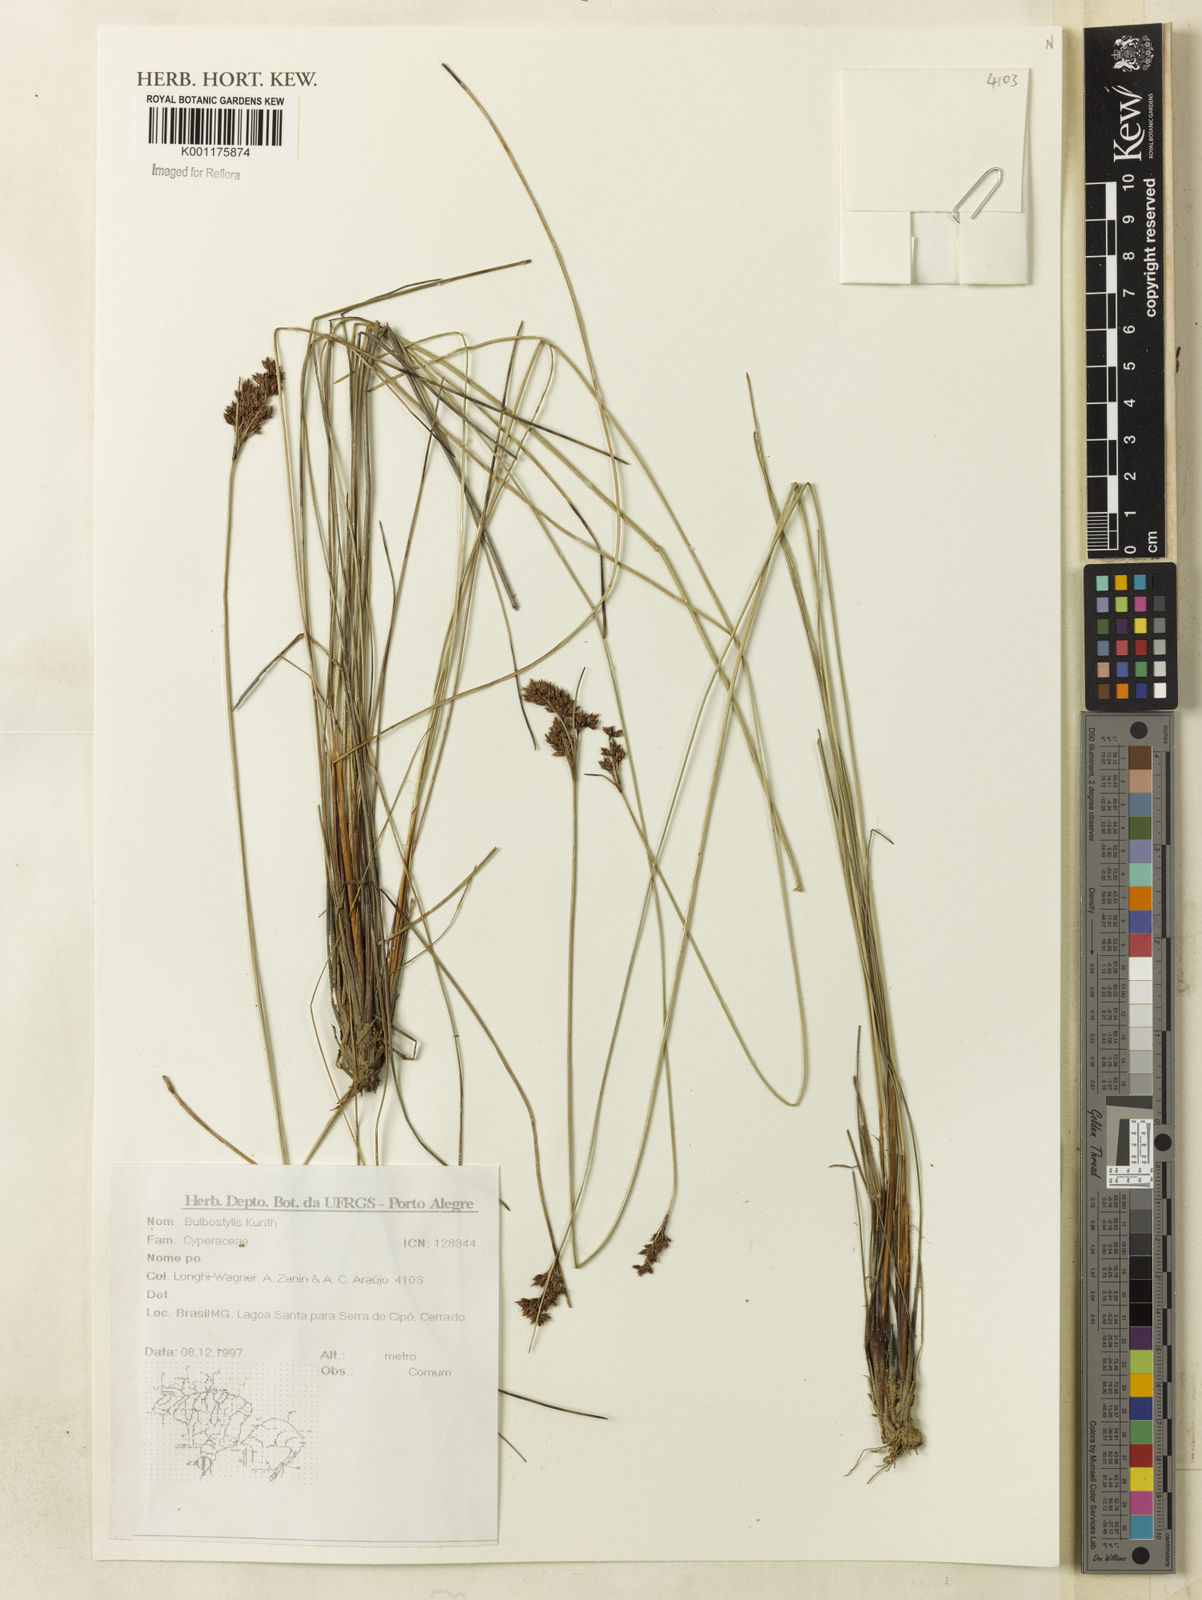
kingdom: Plantae
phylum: Tracheophyta
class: Liliopsida
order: Poales
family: Cyperaceae
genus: Bulbostylis
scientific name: Bulbostylis
